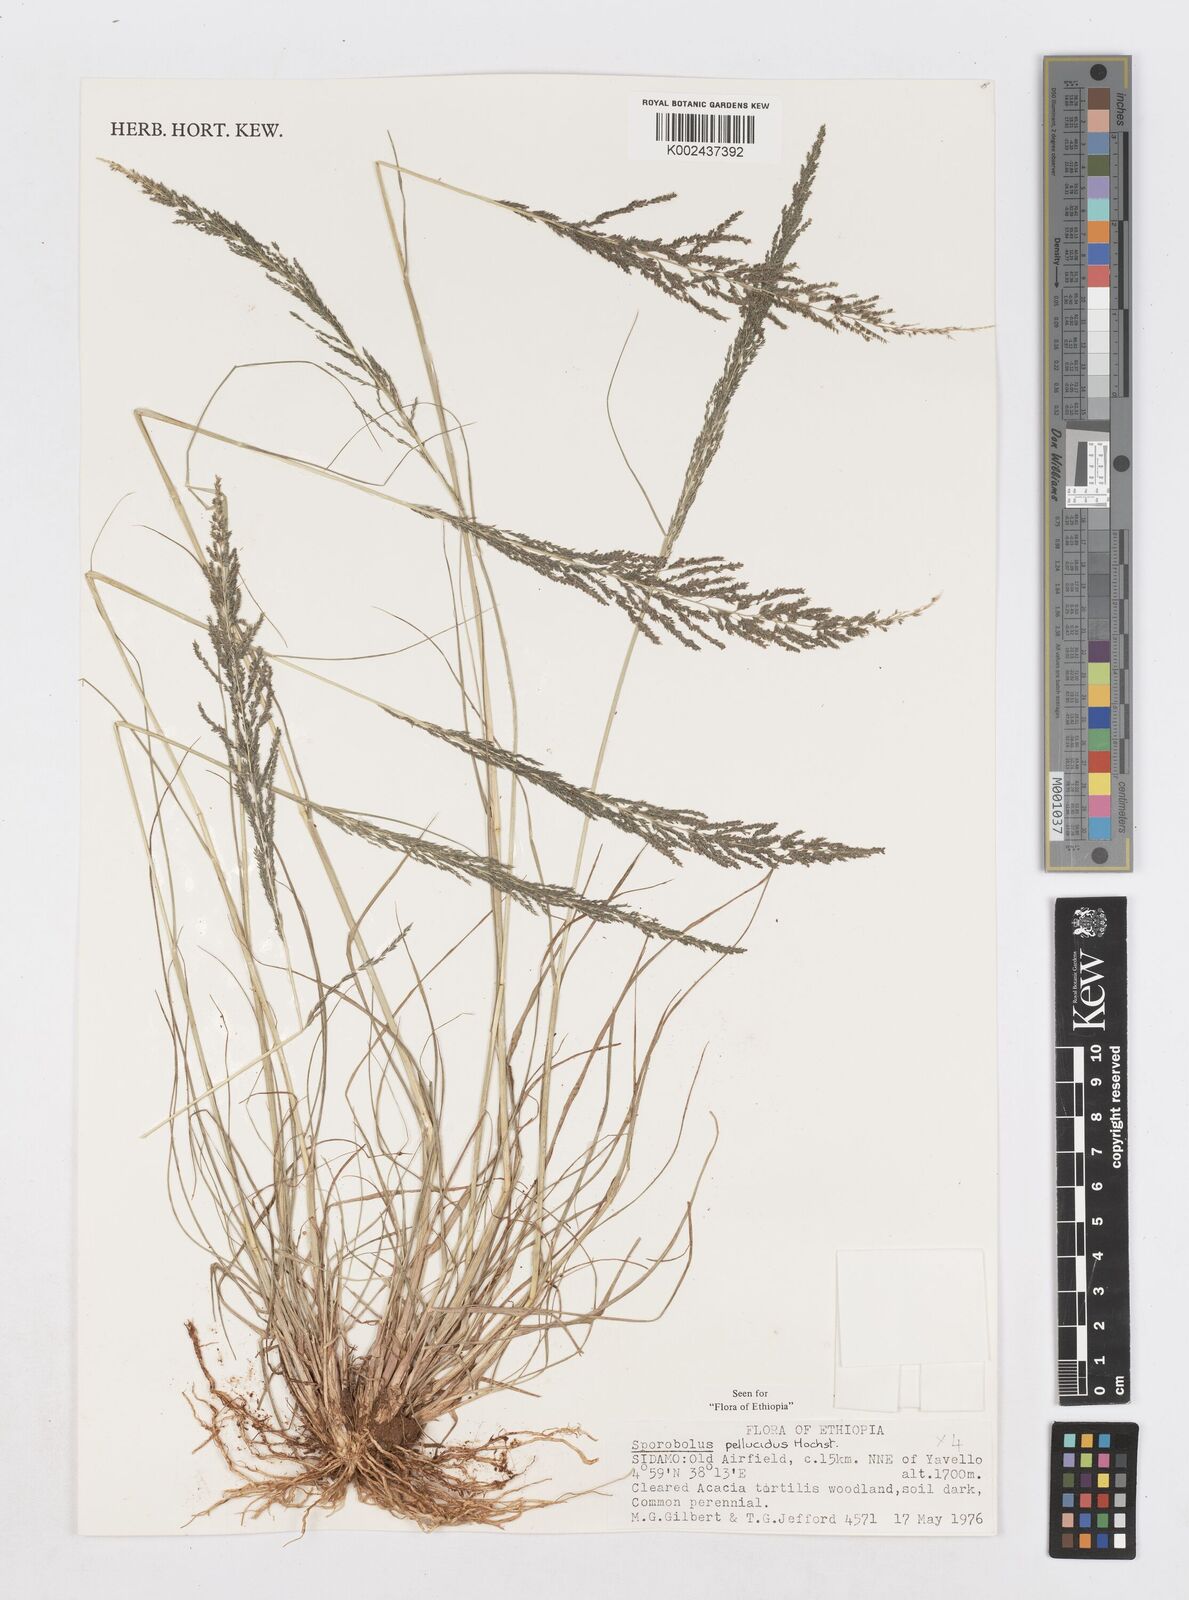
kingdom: Plantae
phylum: Tracheophyta
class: Liliopsida
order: Poales
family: Poaceae
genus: Sporobolus
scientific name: Sporobolus pellucidus
